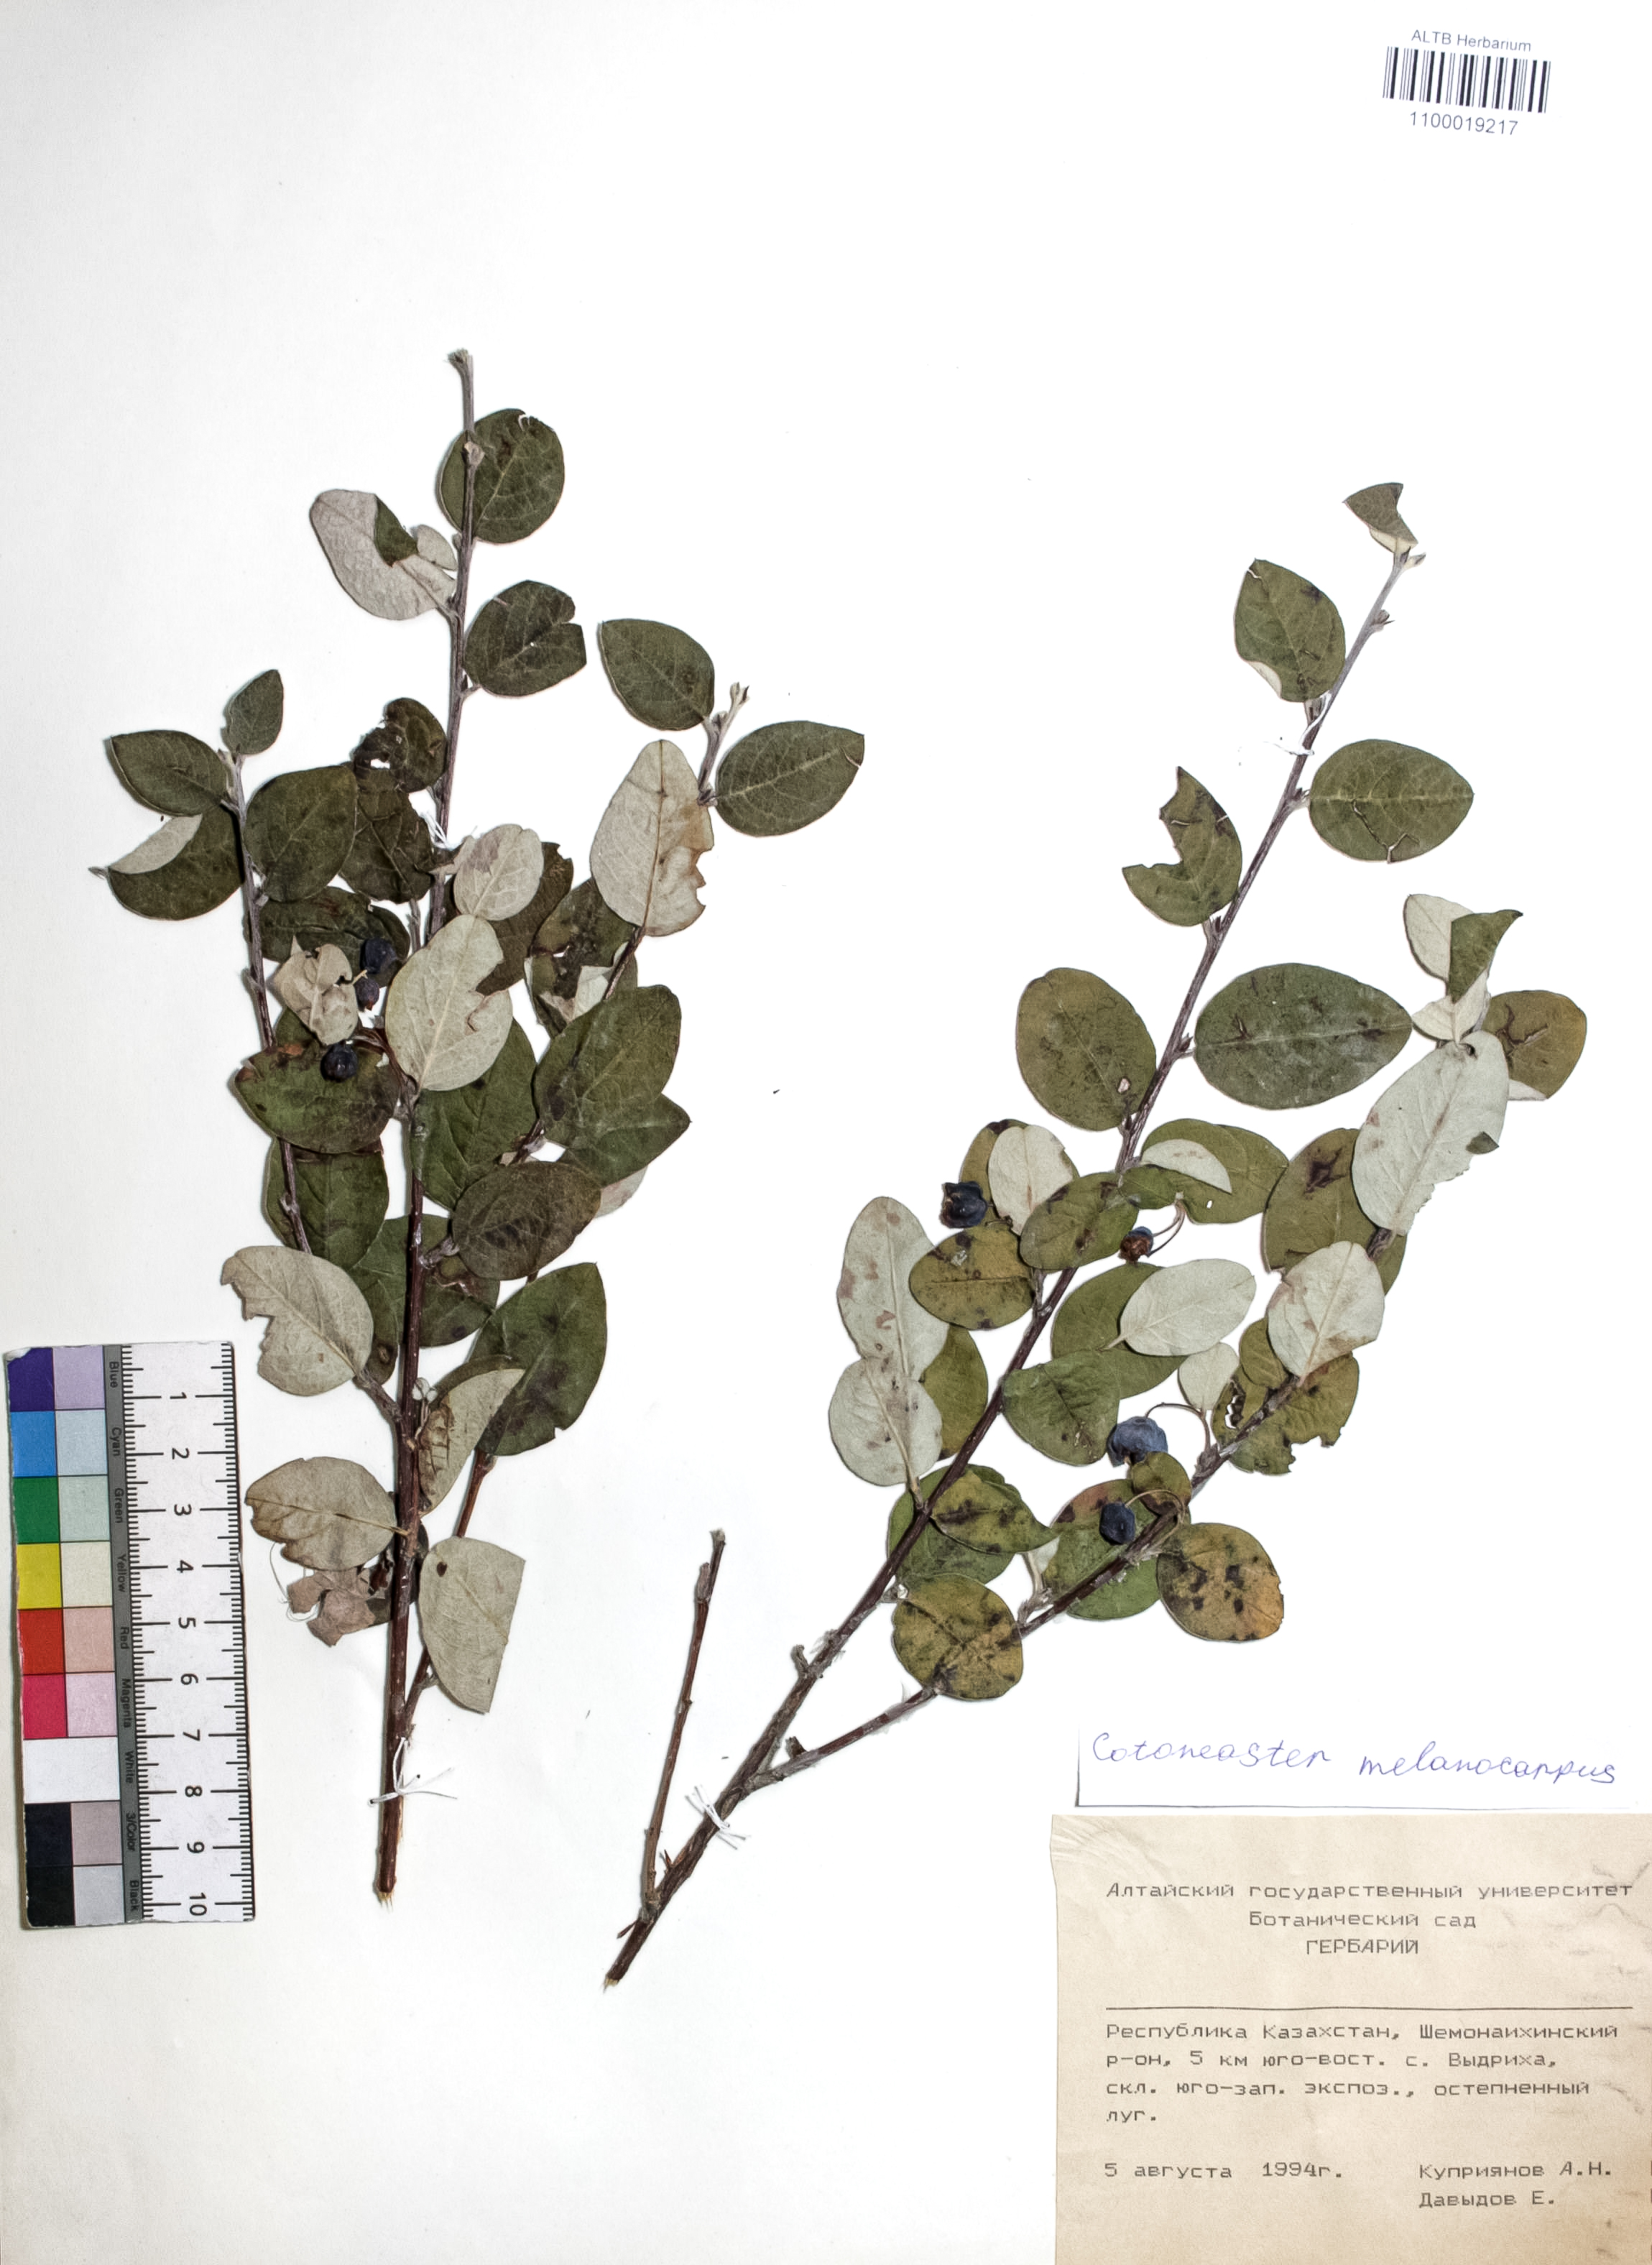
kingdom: Plantae
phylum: Tracheophyta
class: Magnoliopsida
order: Rosales
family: Rosaceae
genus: Cotoneaster
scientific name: Cotoneaster niger
